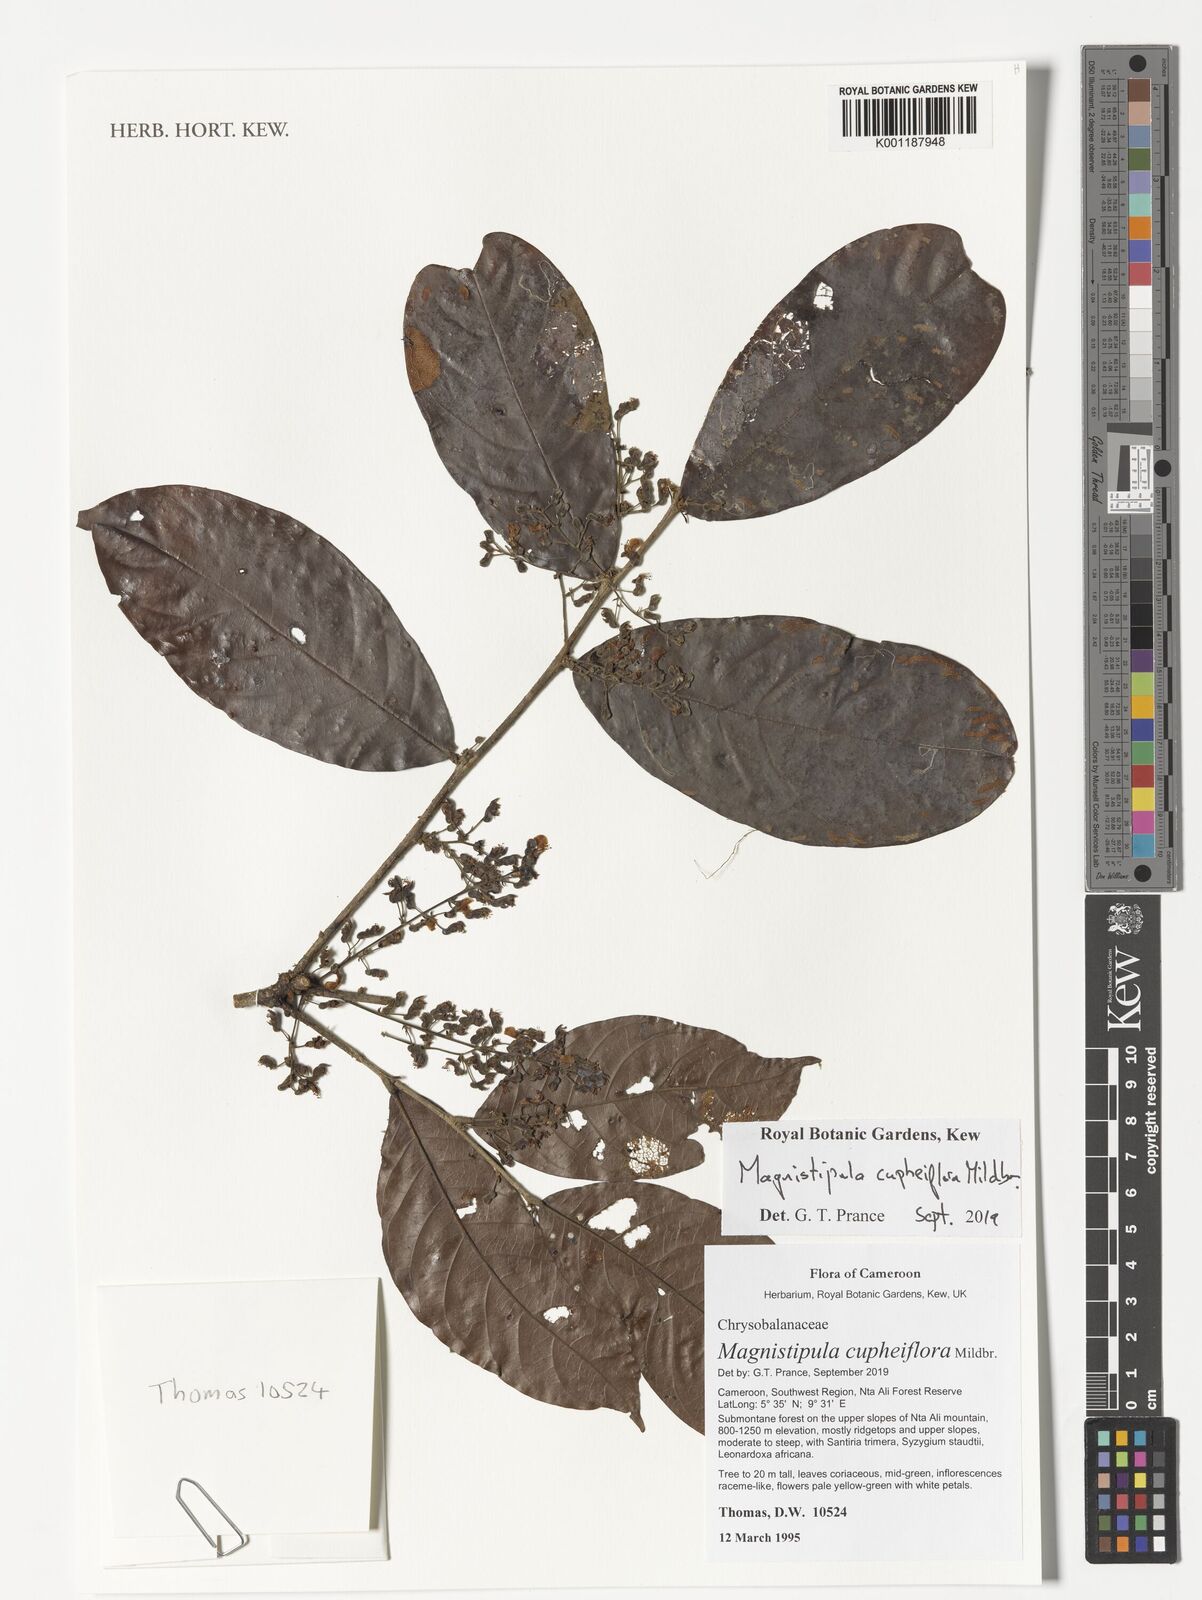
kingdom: Plantae
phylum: Tracheophyta
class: Magnoliopsida
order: Malpighiales
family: Chrysobalanaceae
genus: Magnistipula
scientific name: Magnistipula cupheiflora
